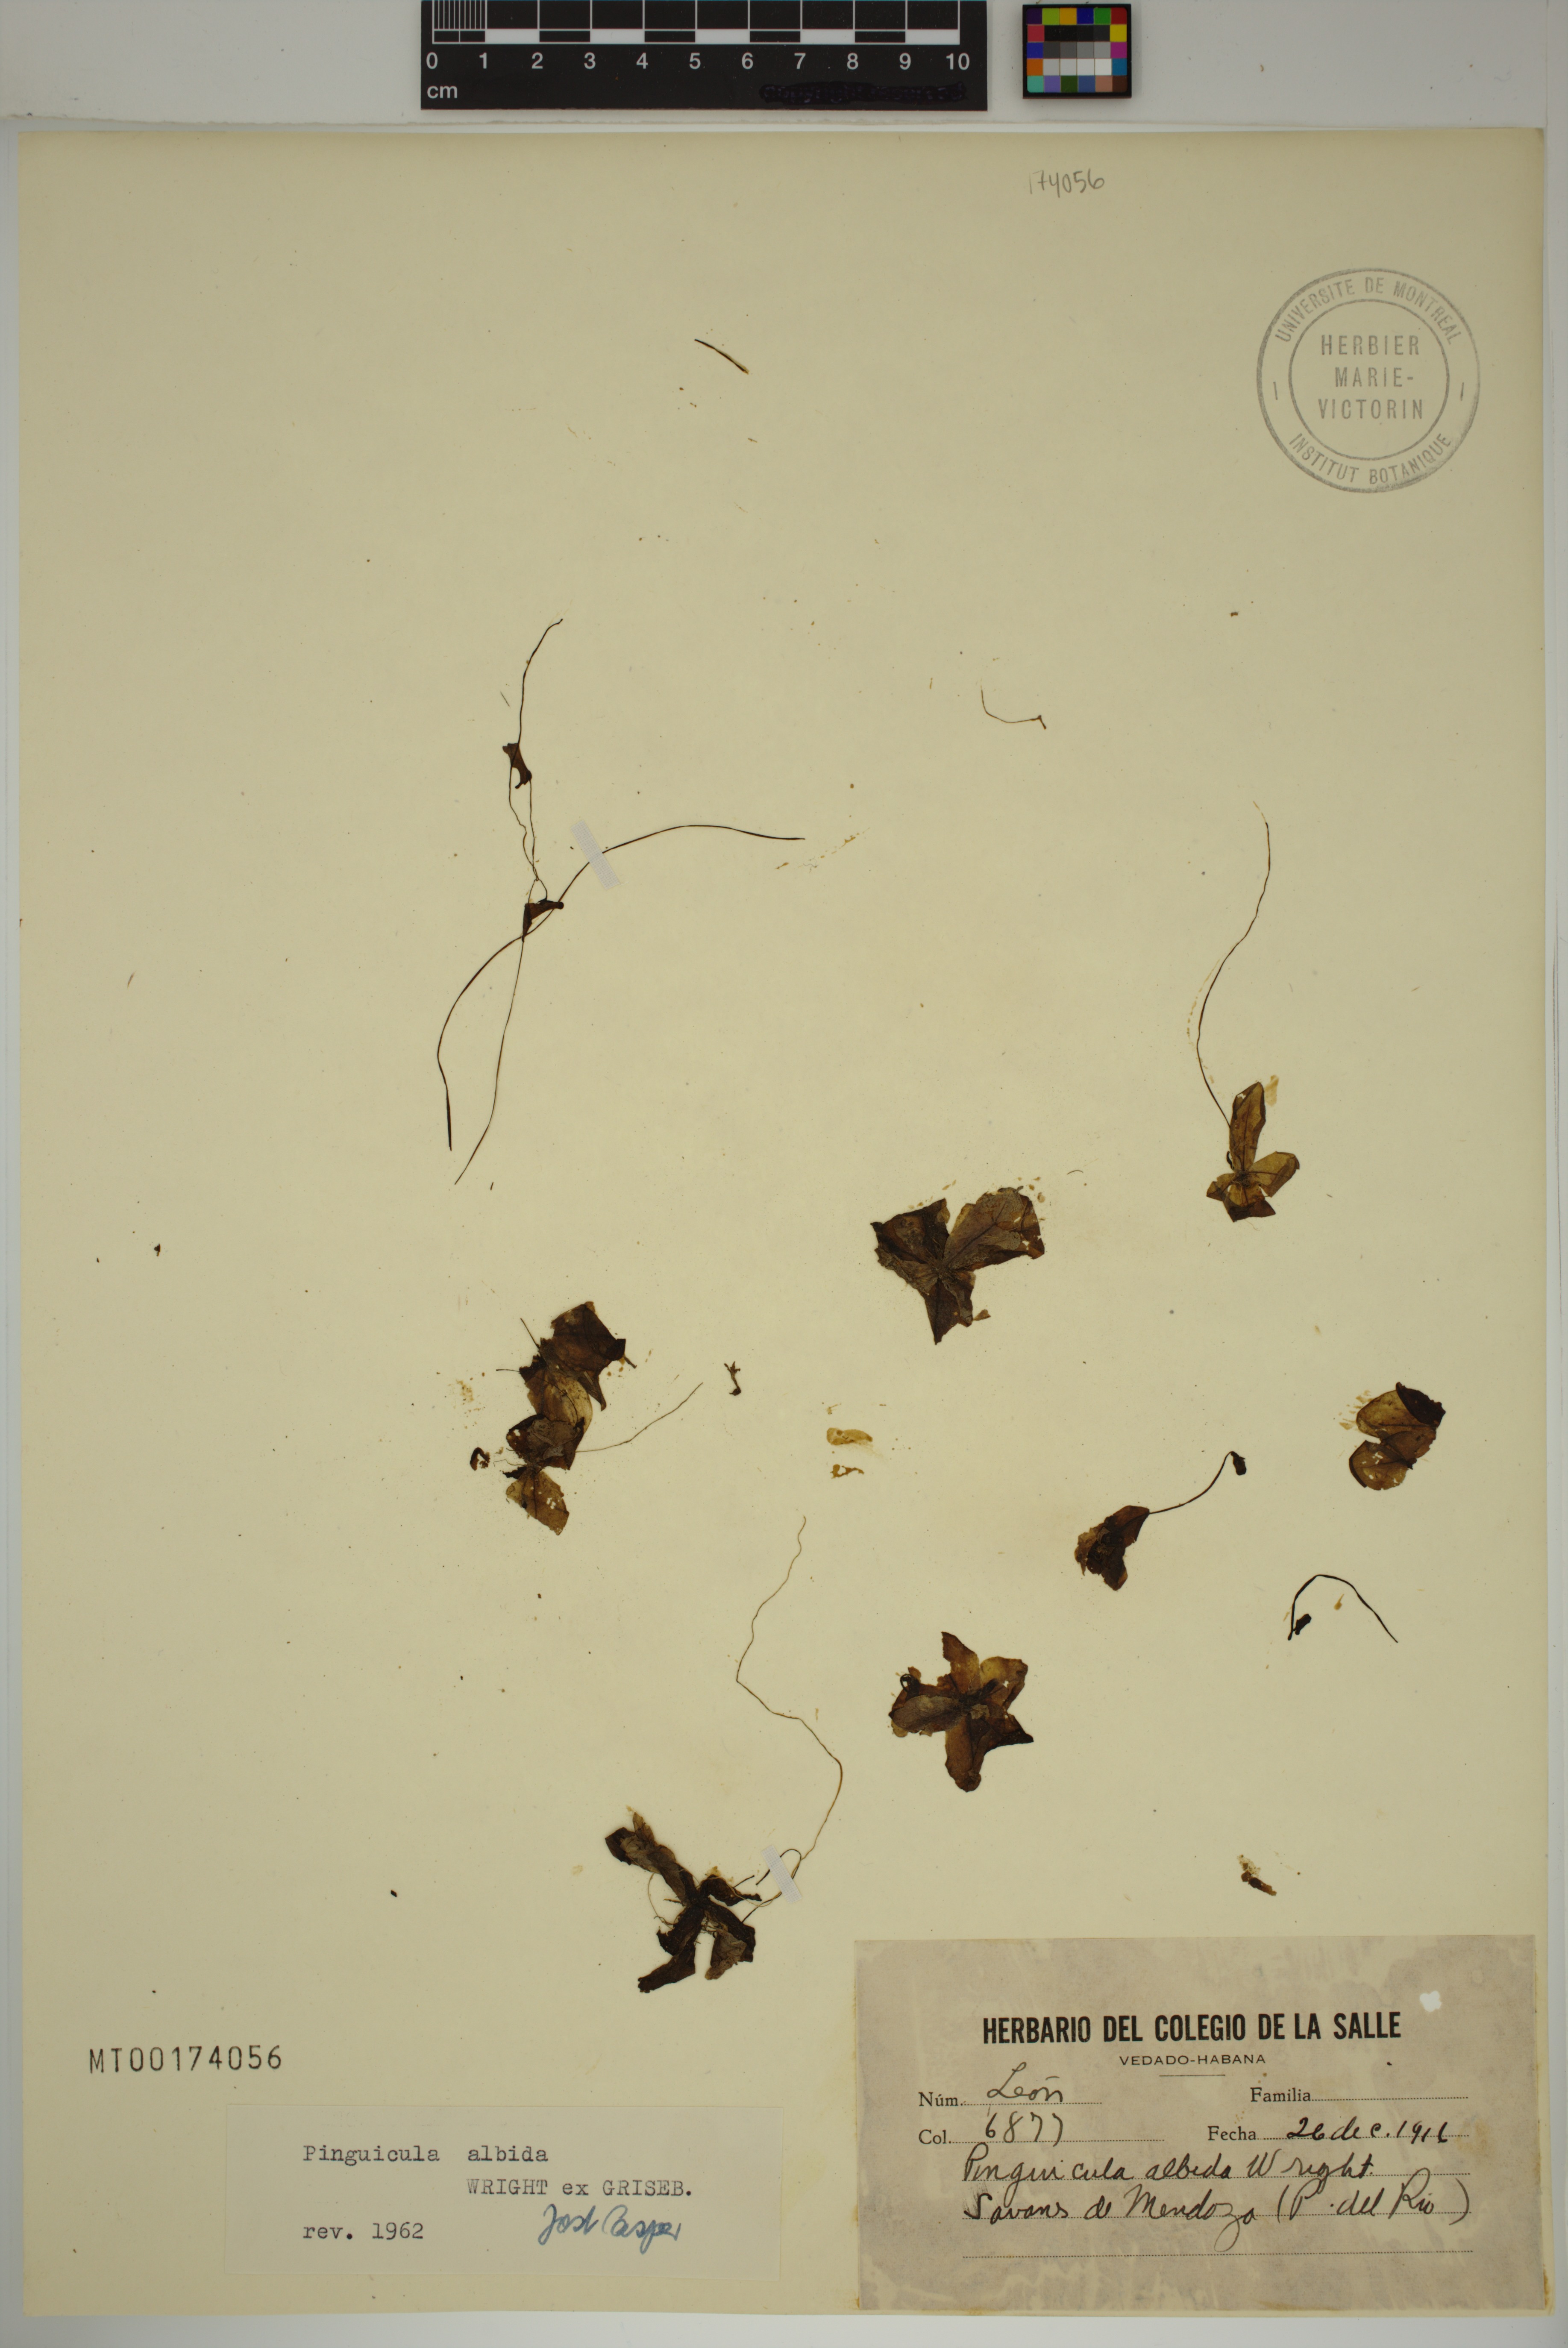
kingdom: Plantae
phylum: Tracheophyta
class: Magnoliopsida
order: Lamiales
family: Lentibulariaceae
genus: Pinguicula
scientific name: Pinguicula albida
